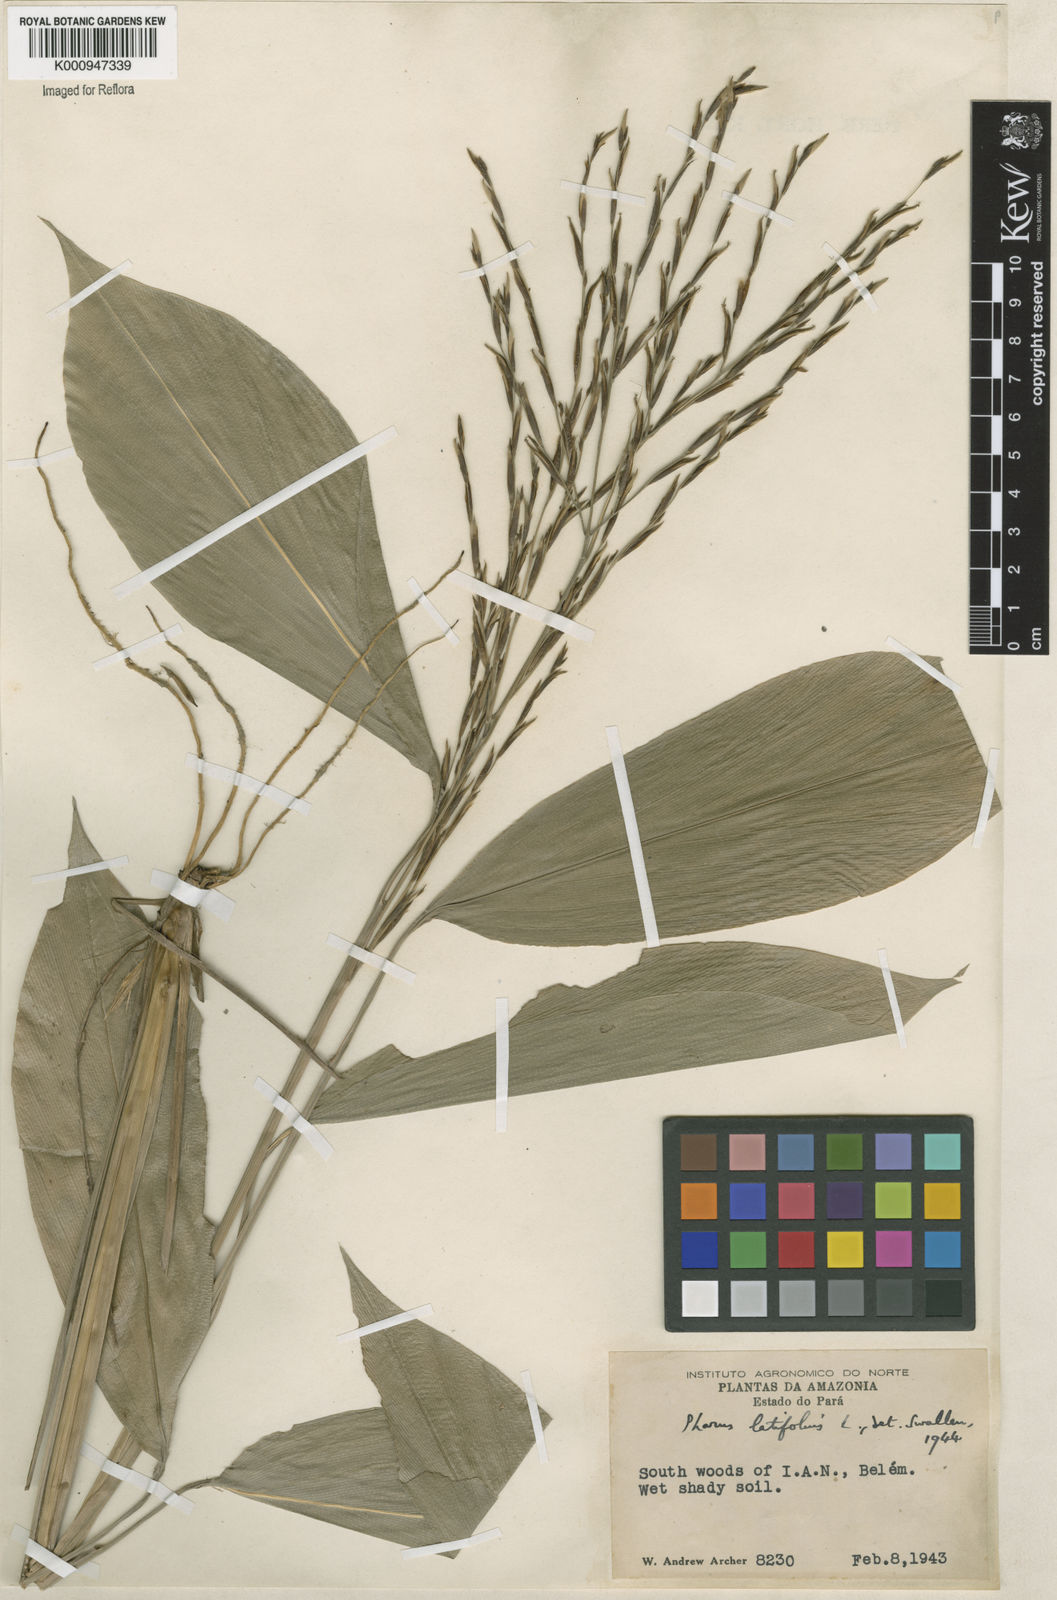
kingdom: Plantae
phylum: Tracheophyta
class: Liliopsida
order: Poales
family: Poaceae
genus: Pharus
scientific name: Pharus latifolius
